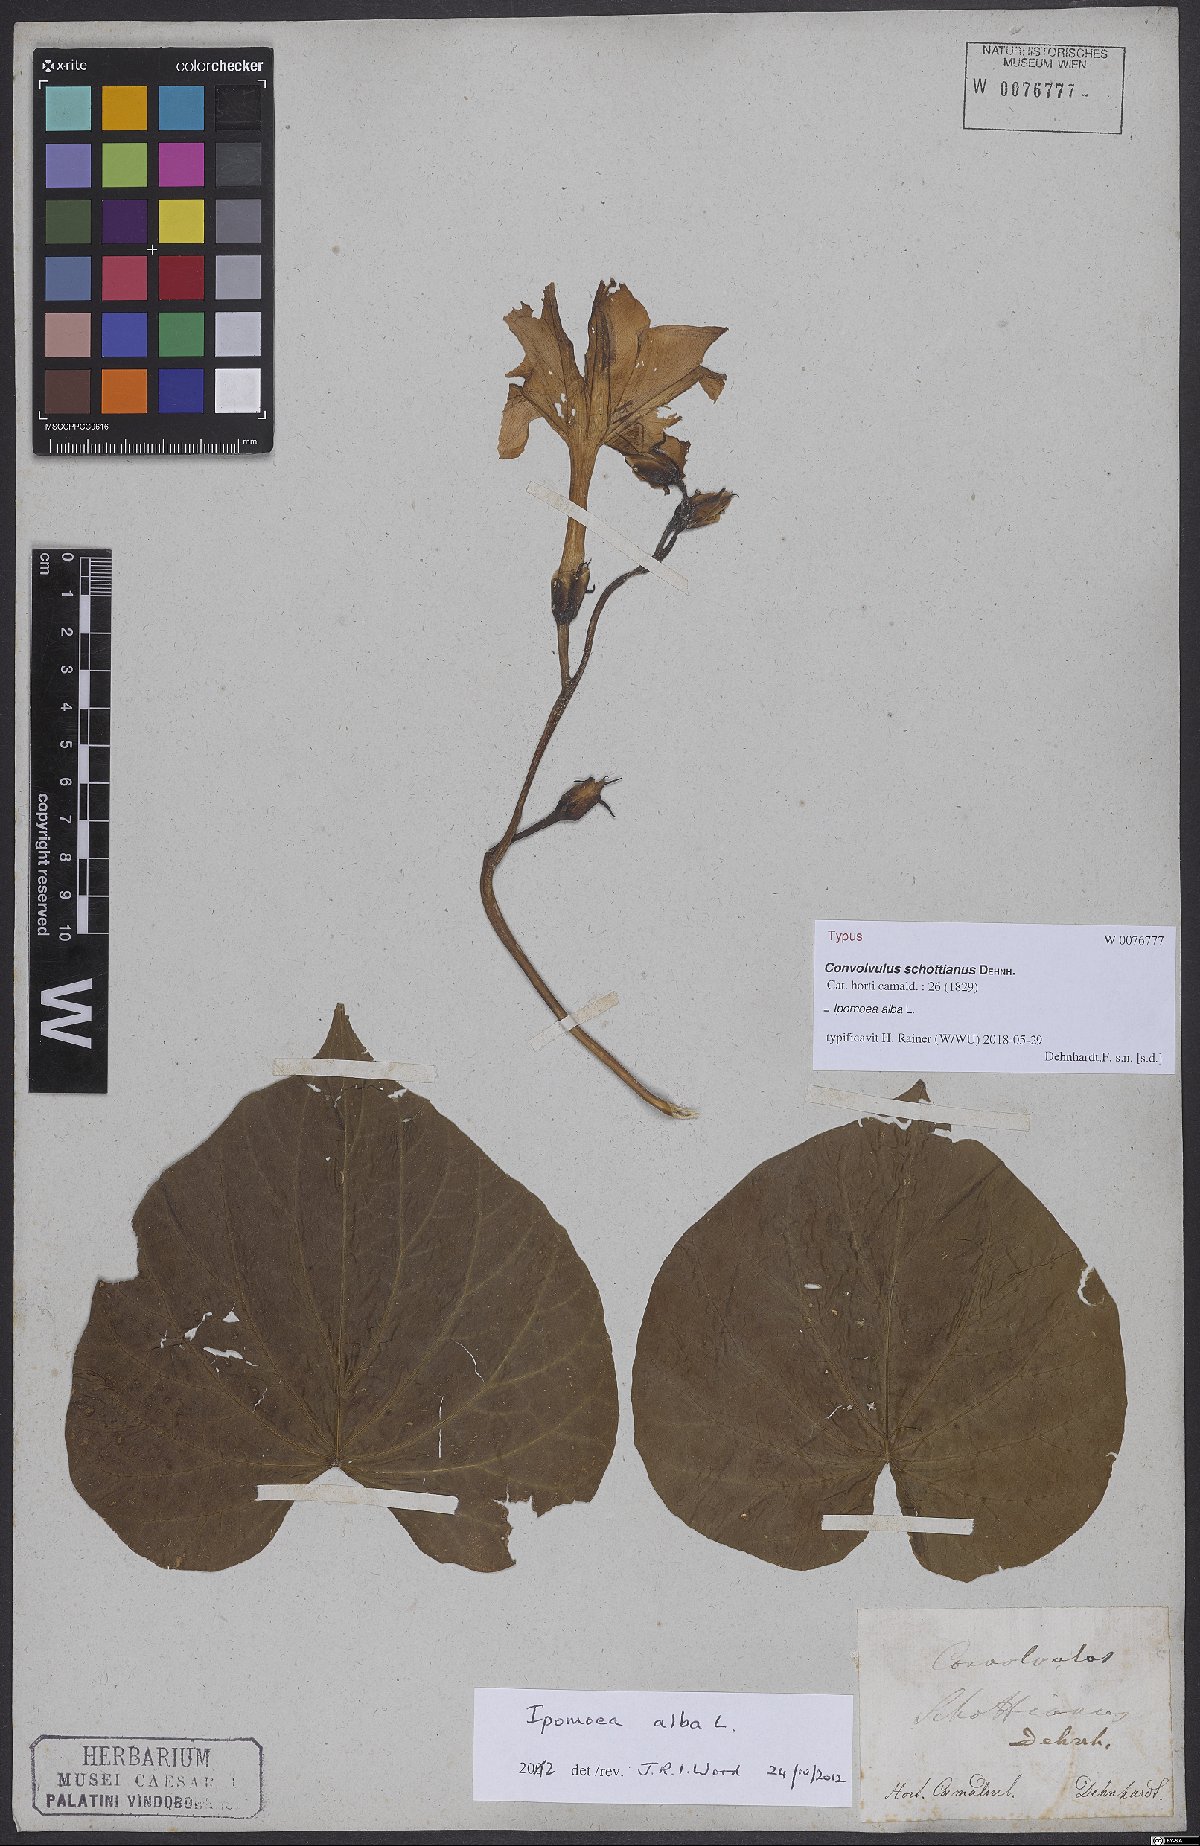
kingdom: Plantae
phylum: Tracheophyta
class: Magnoliopsida
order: Solanales
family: Convolvulaceae
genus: Ipomoea
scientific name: Ipomoea alba
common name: Moonflower
